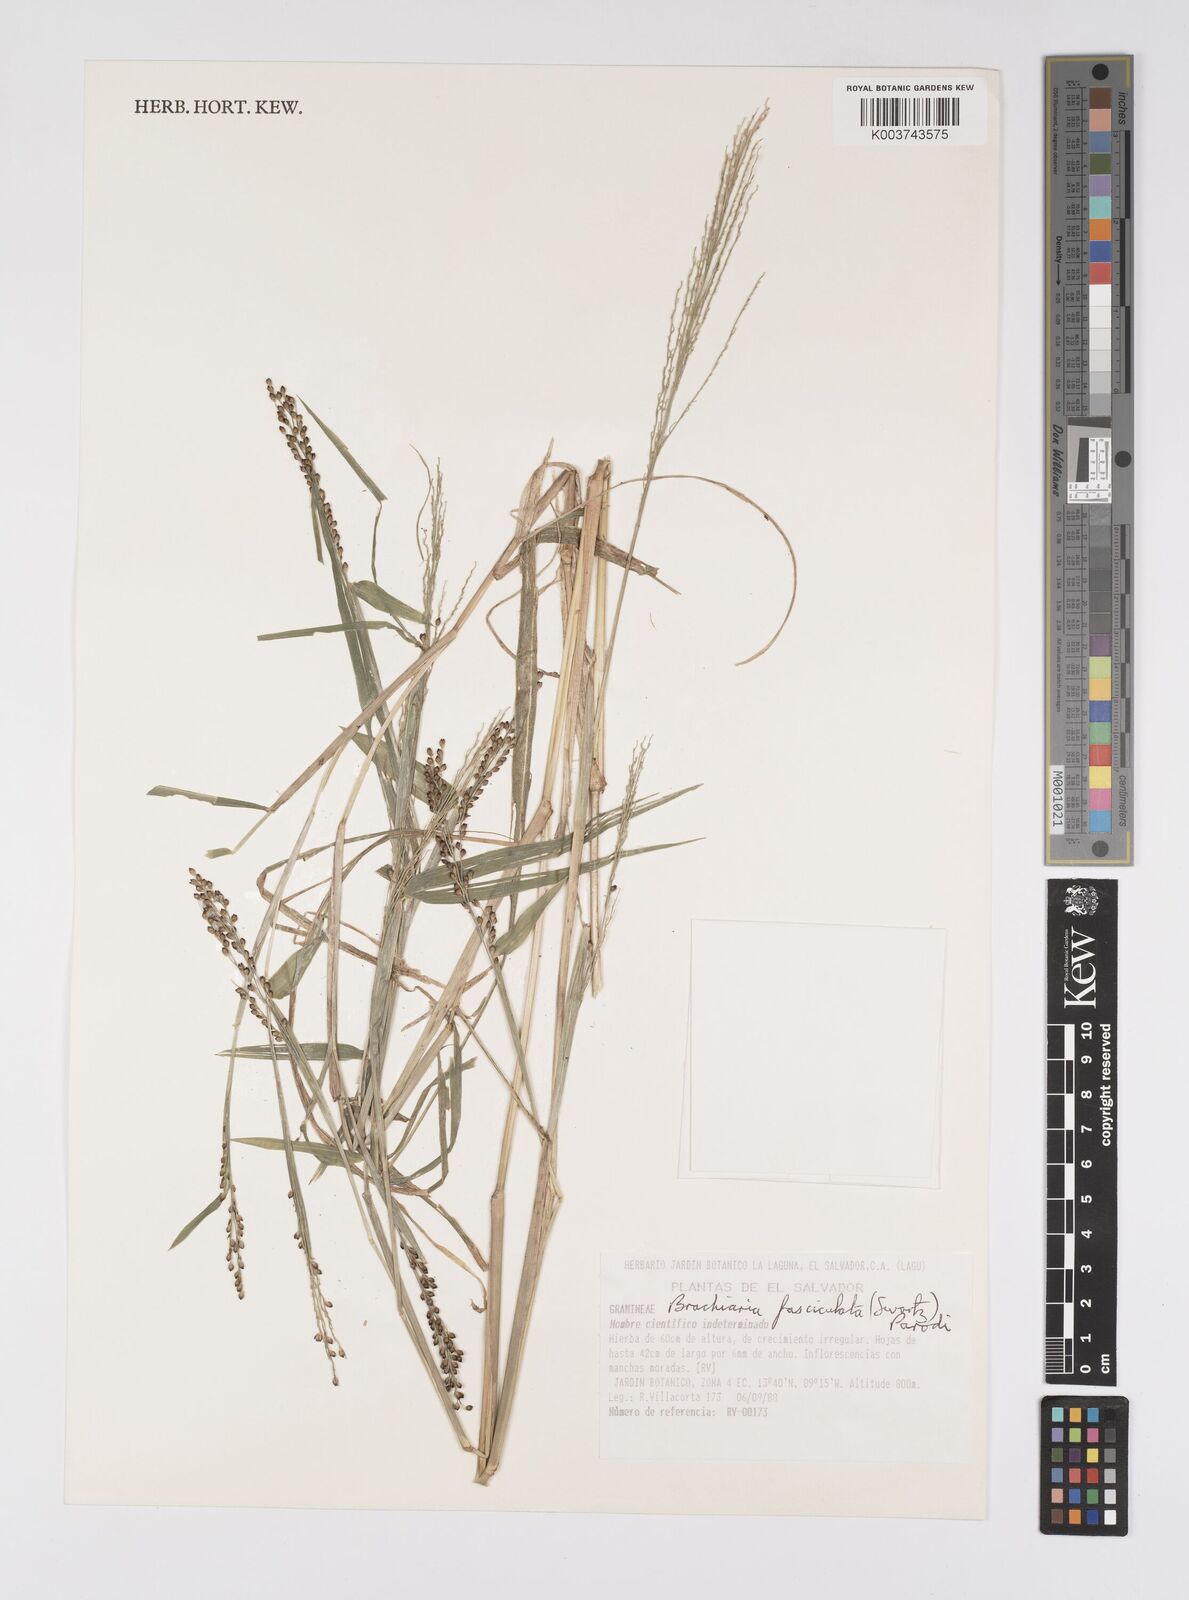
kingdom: Plantae
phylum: Tracheophyta
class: Liliopsida
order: Poales
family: Poaceae
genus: Urochloa
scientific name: Urochloa fusca
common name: Browntop signal grass
